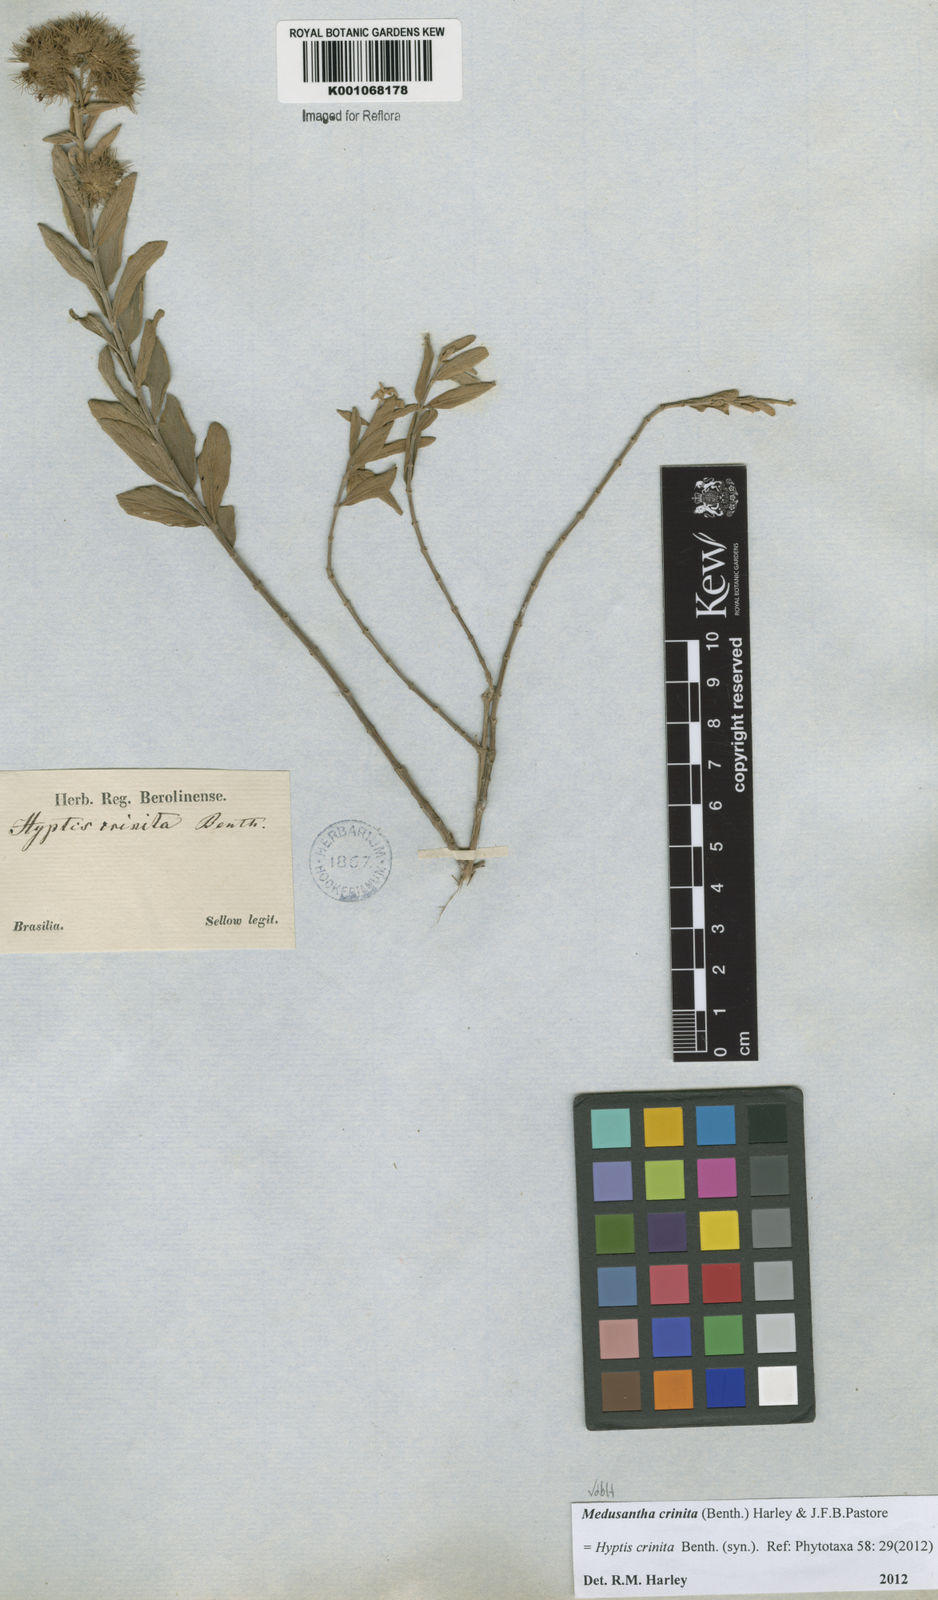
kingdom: Plantae
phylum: Tracheophyta
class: Magnoliopsida
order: Lamiales
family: Lamiaceae
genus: Medusantha
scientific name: Medusantha crinita
